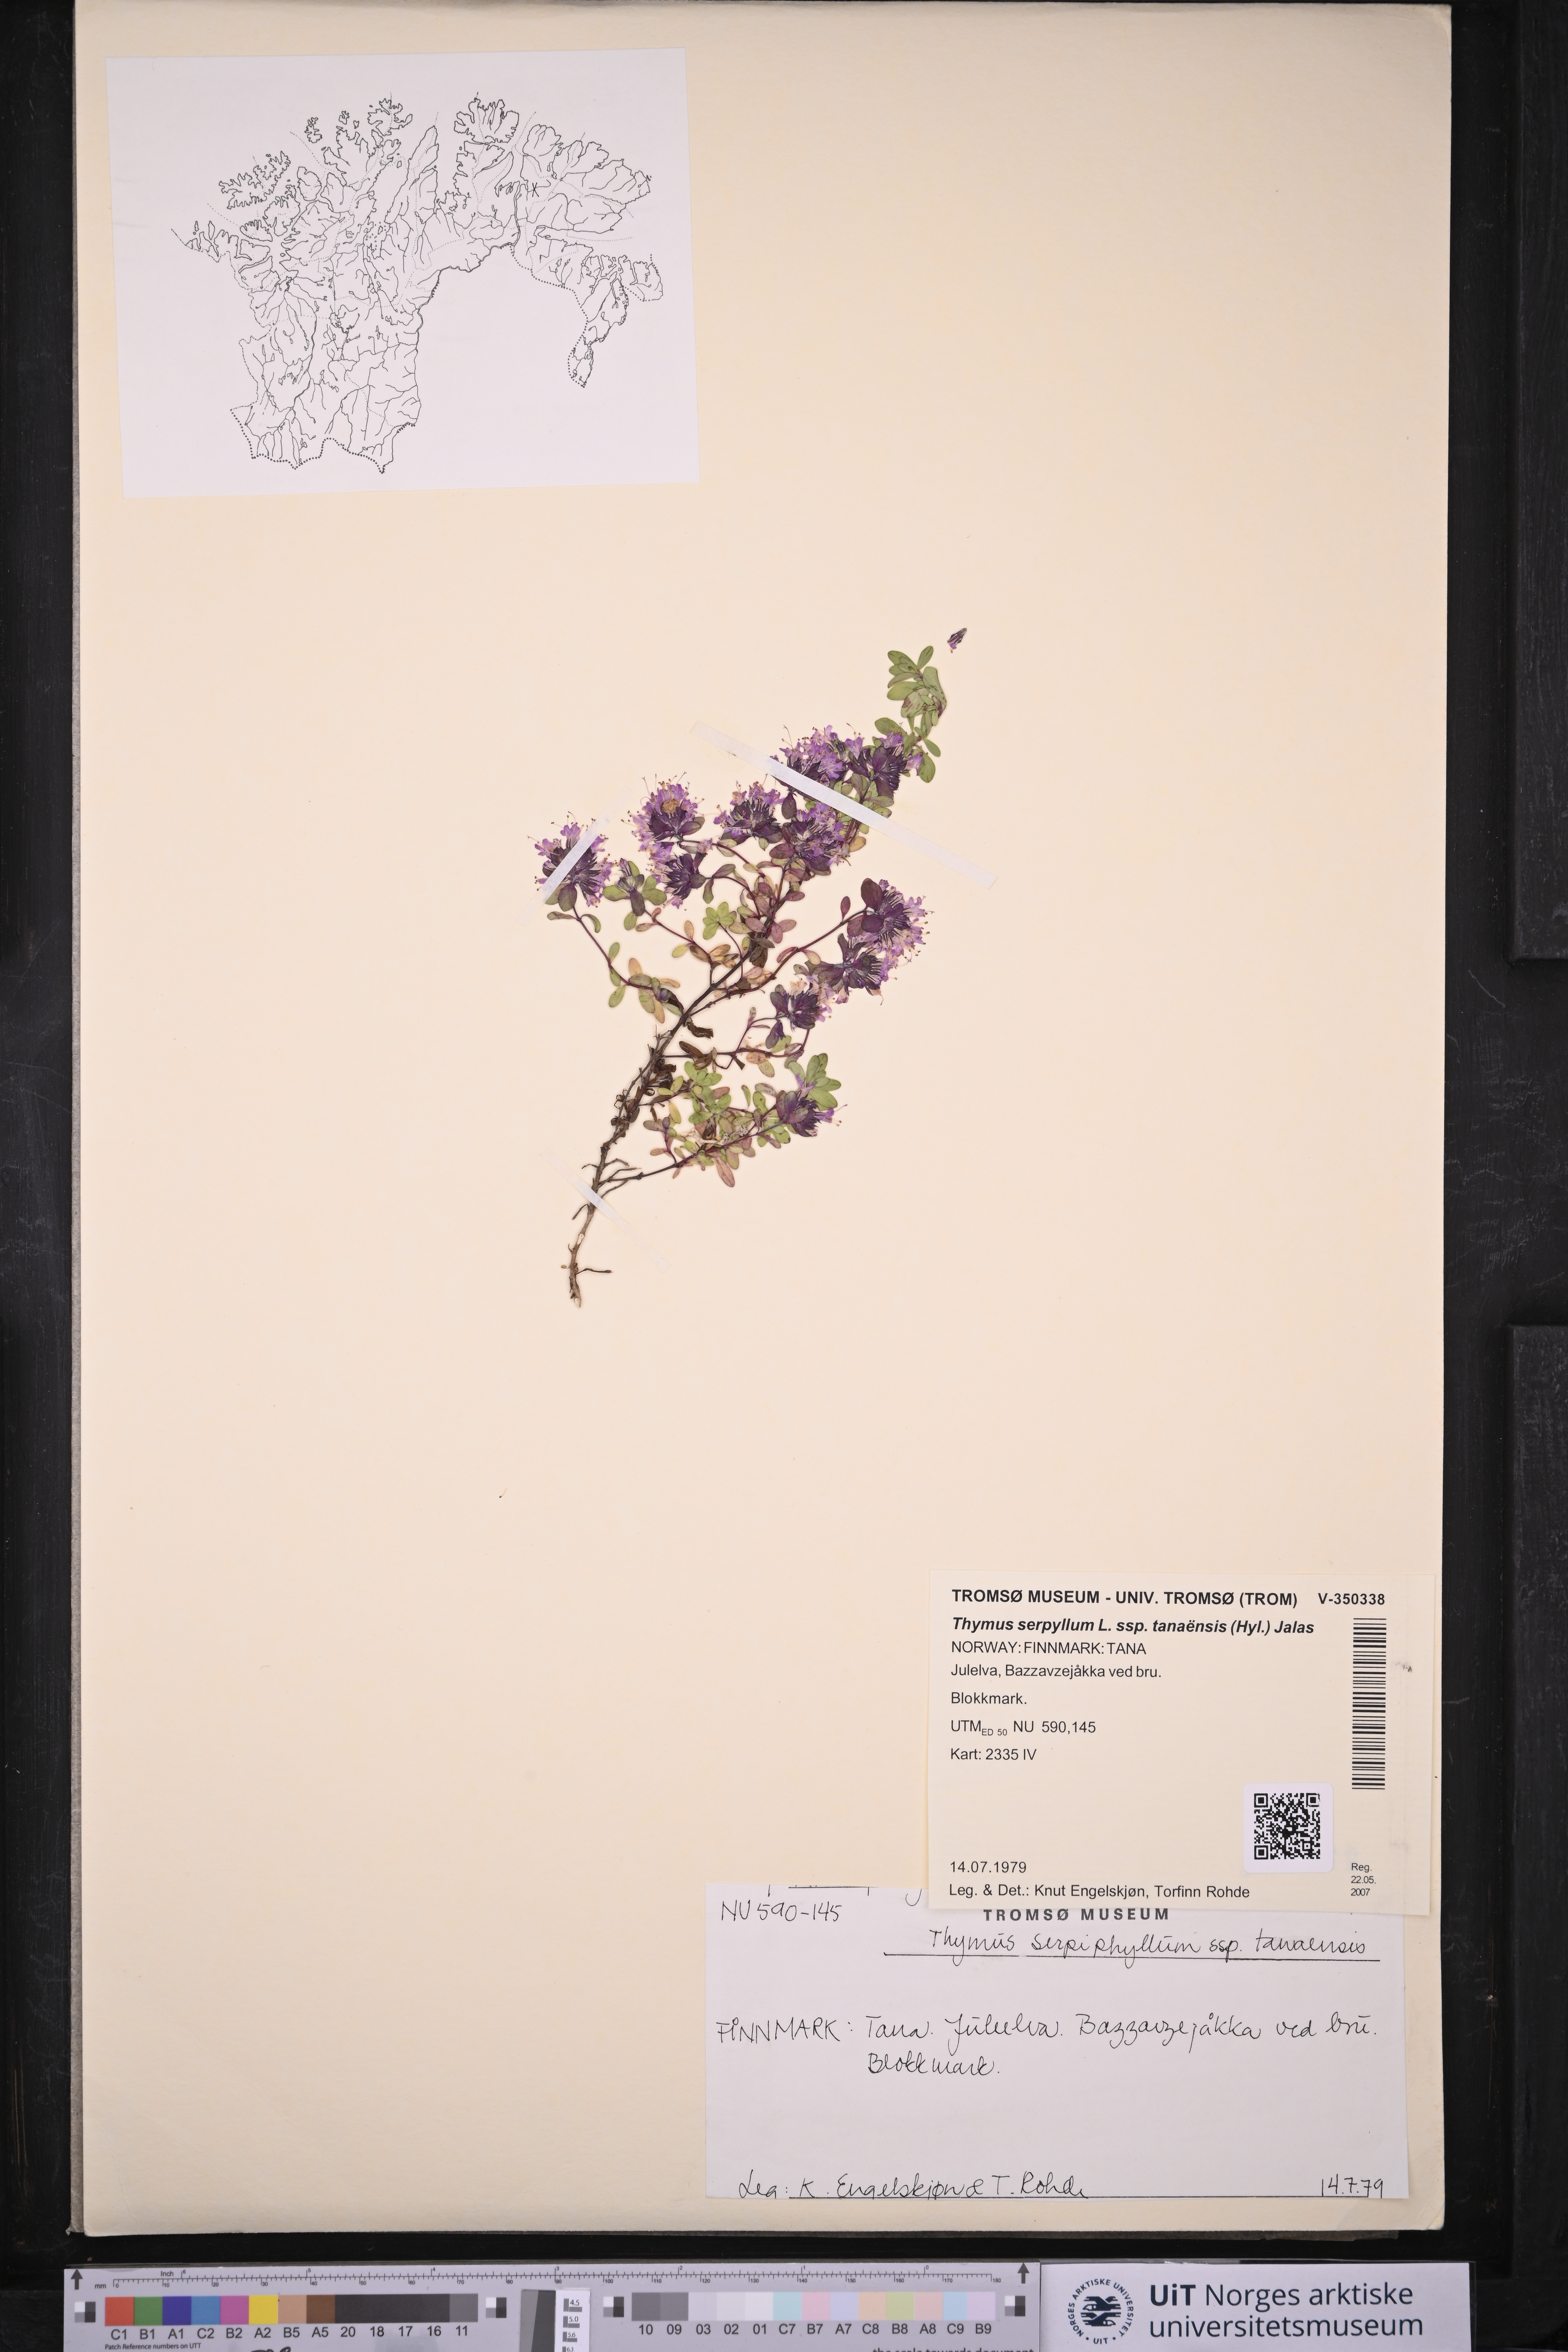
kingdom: Plantae
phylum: Tracheophyta
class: Magnoliopsida
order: Lamiales
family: Lamiaceae
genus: Thymus
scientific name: Thymus serpyllum
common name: Breckland thyme
